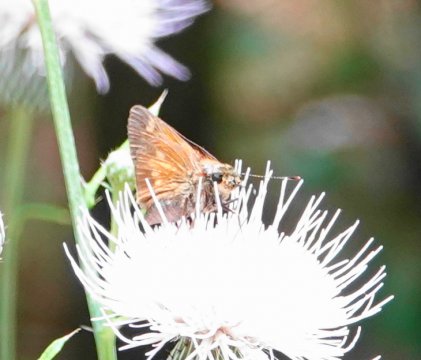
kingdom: Animalia
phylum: Arthropoda
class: Insecta
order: Lepidoptera
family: Hesperiidae
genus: Problema
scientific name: Problema byssus
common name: Byssus Skipper
